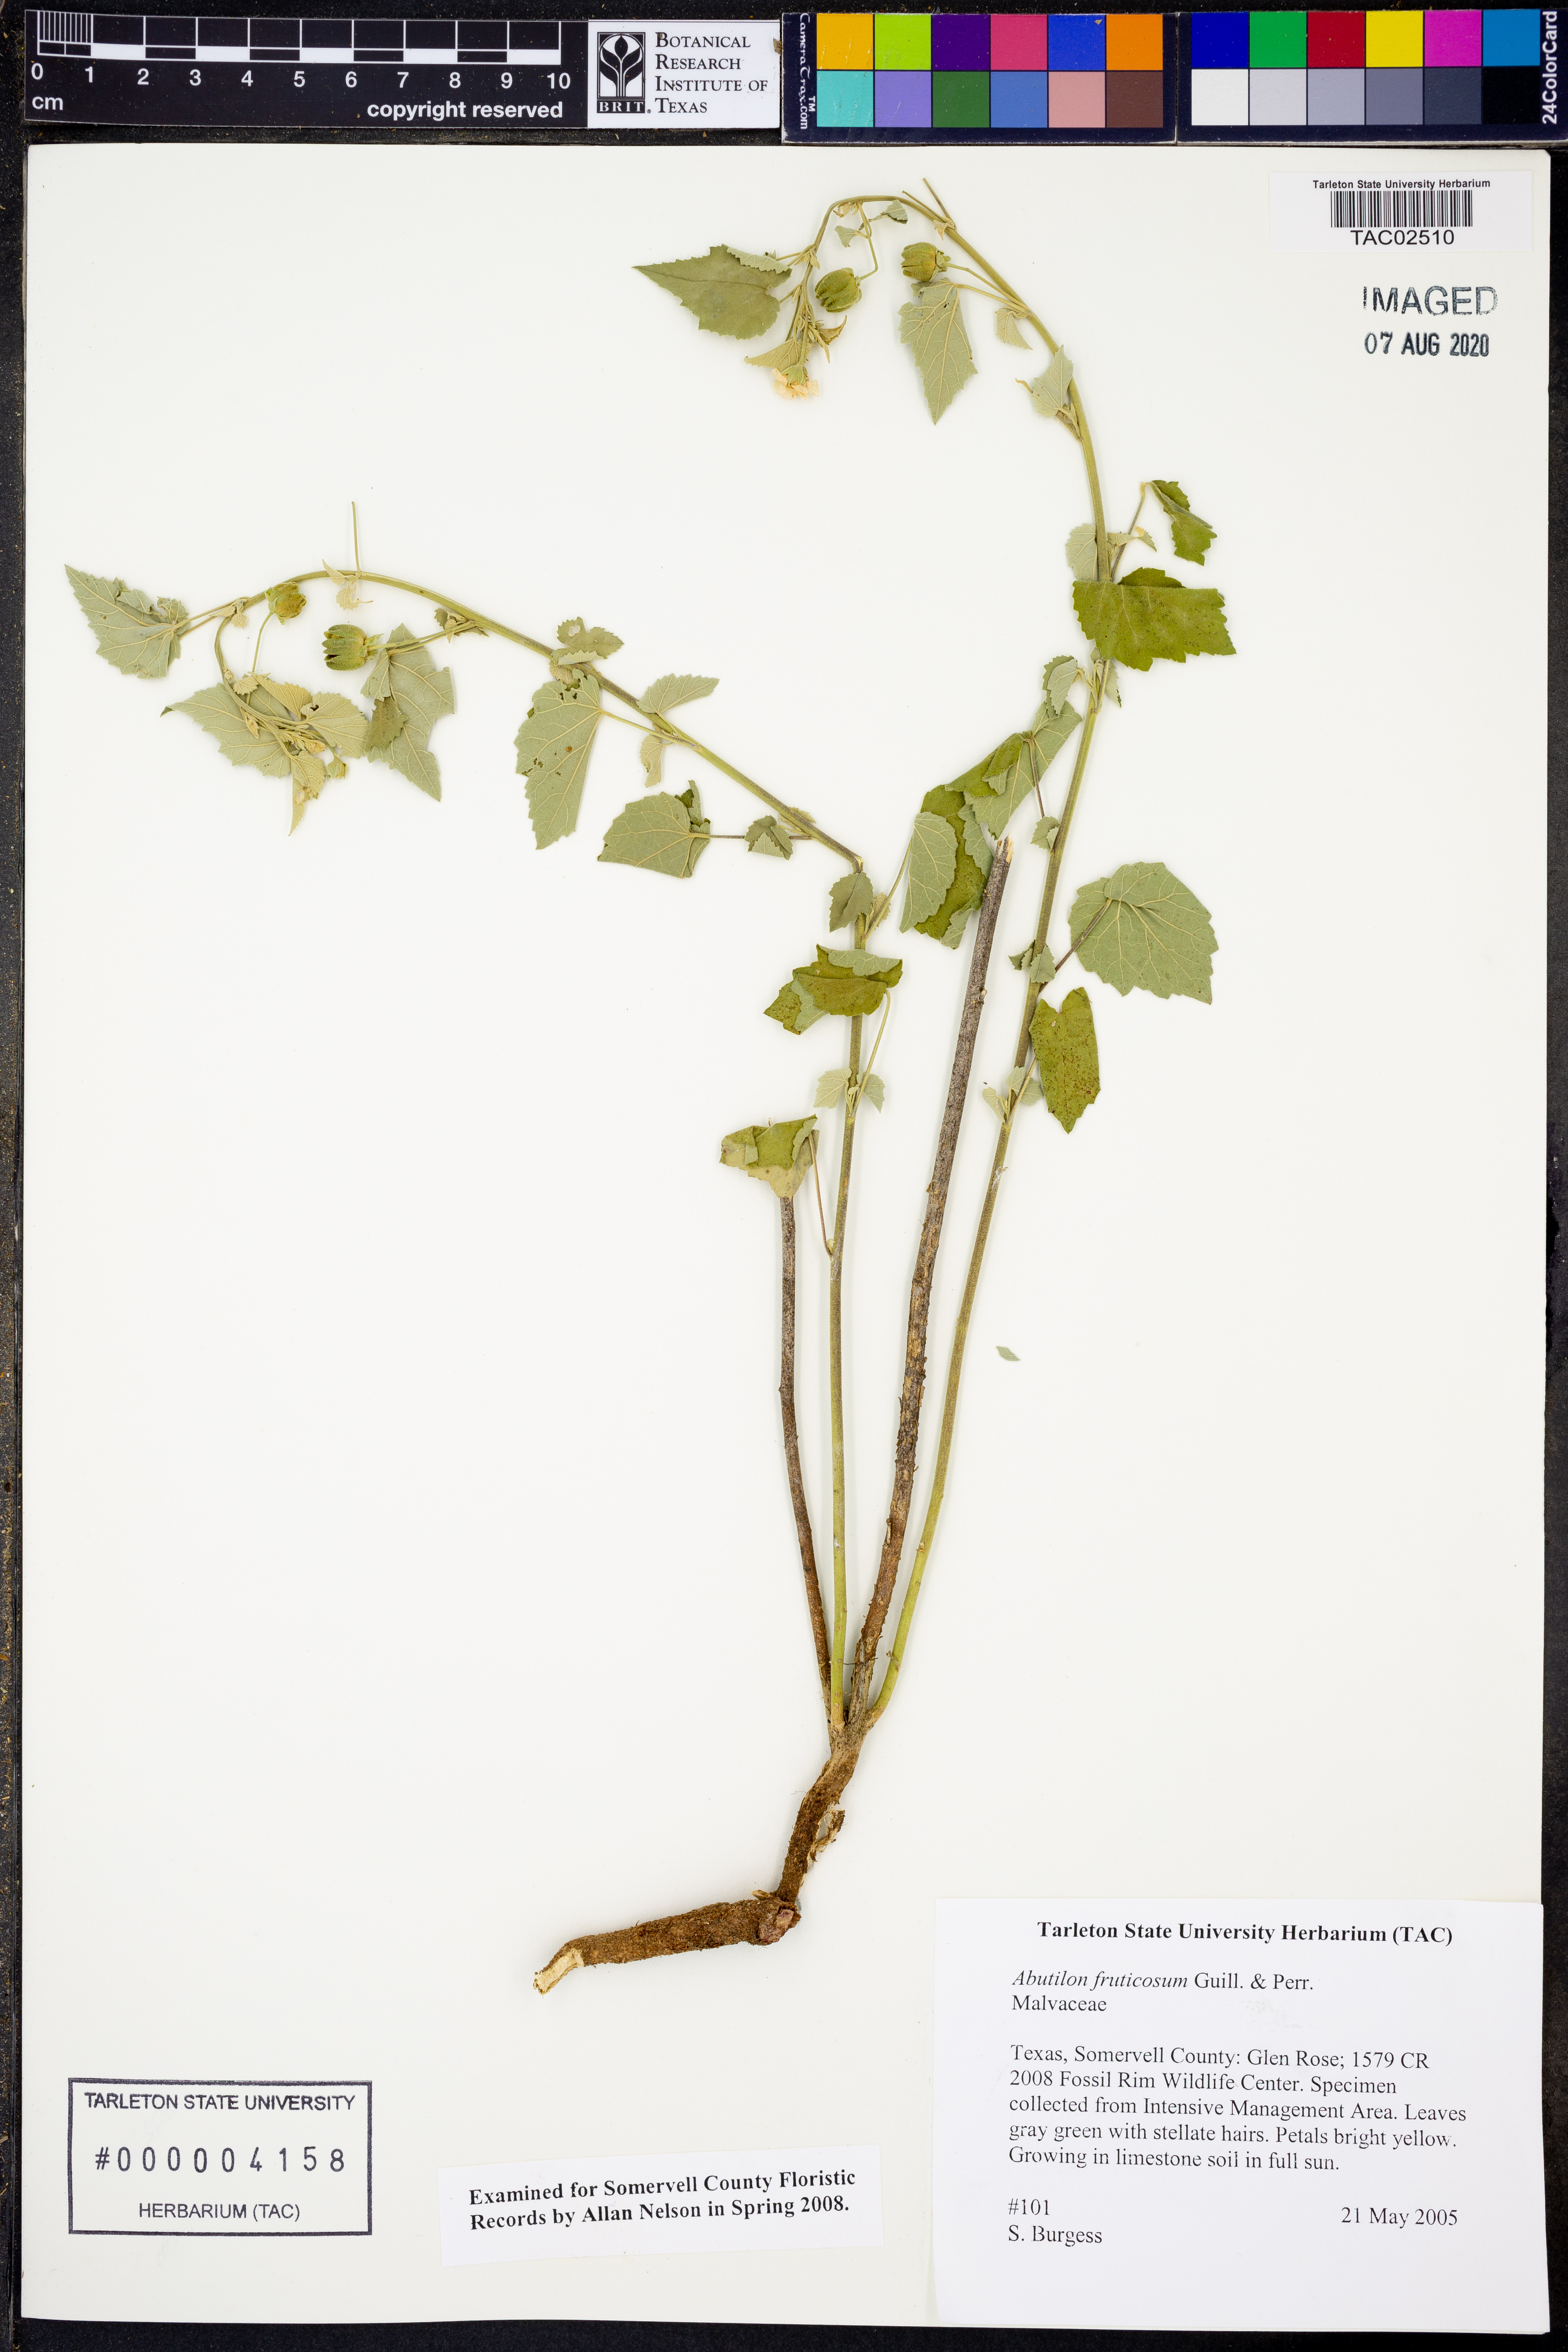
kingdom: Plantae
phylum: Tracheophyta
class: Magnoliopsida
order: Malvales
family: Malvaceae
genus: Abutilon
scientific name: Abutilon fruticosum
